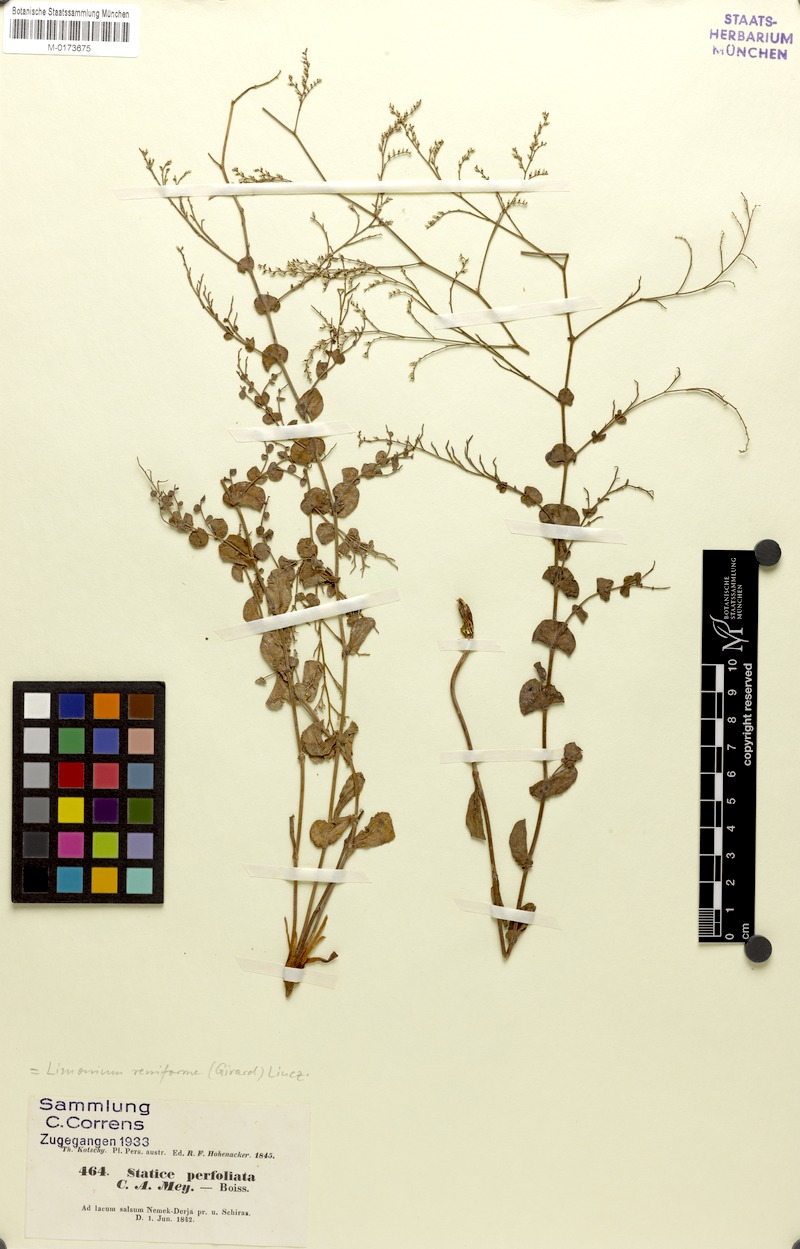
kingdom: Plantae
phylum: Tracheophyta
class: Magnoliopsida
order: Caryophyllales
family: Plumbaginaceae
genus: Limonium
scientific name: Limonium reniforme
